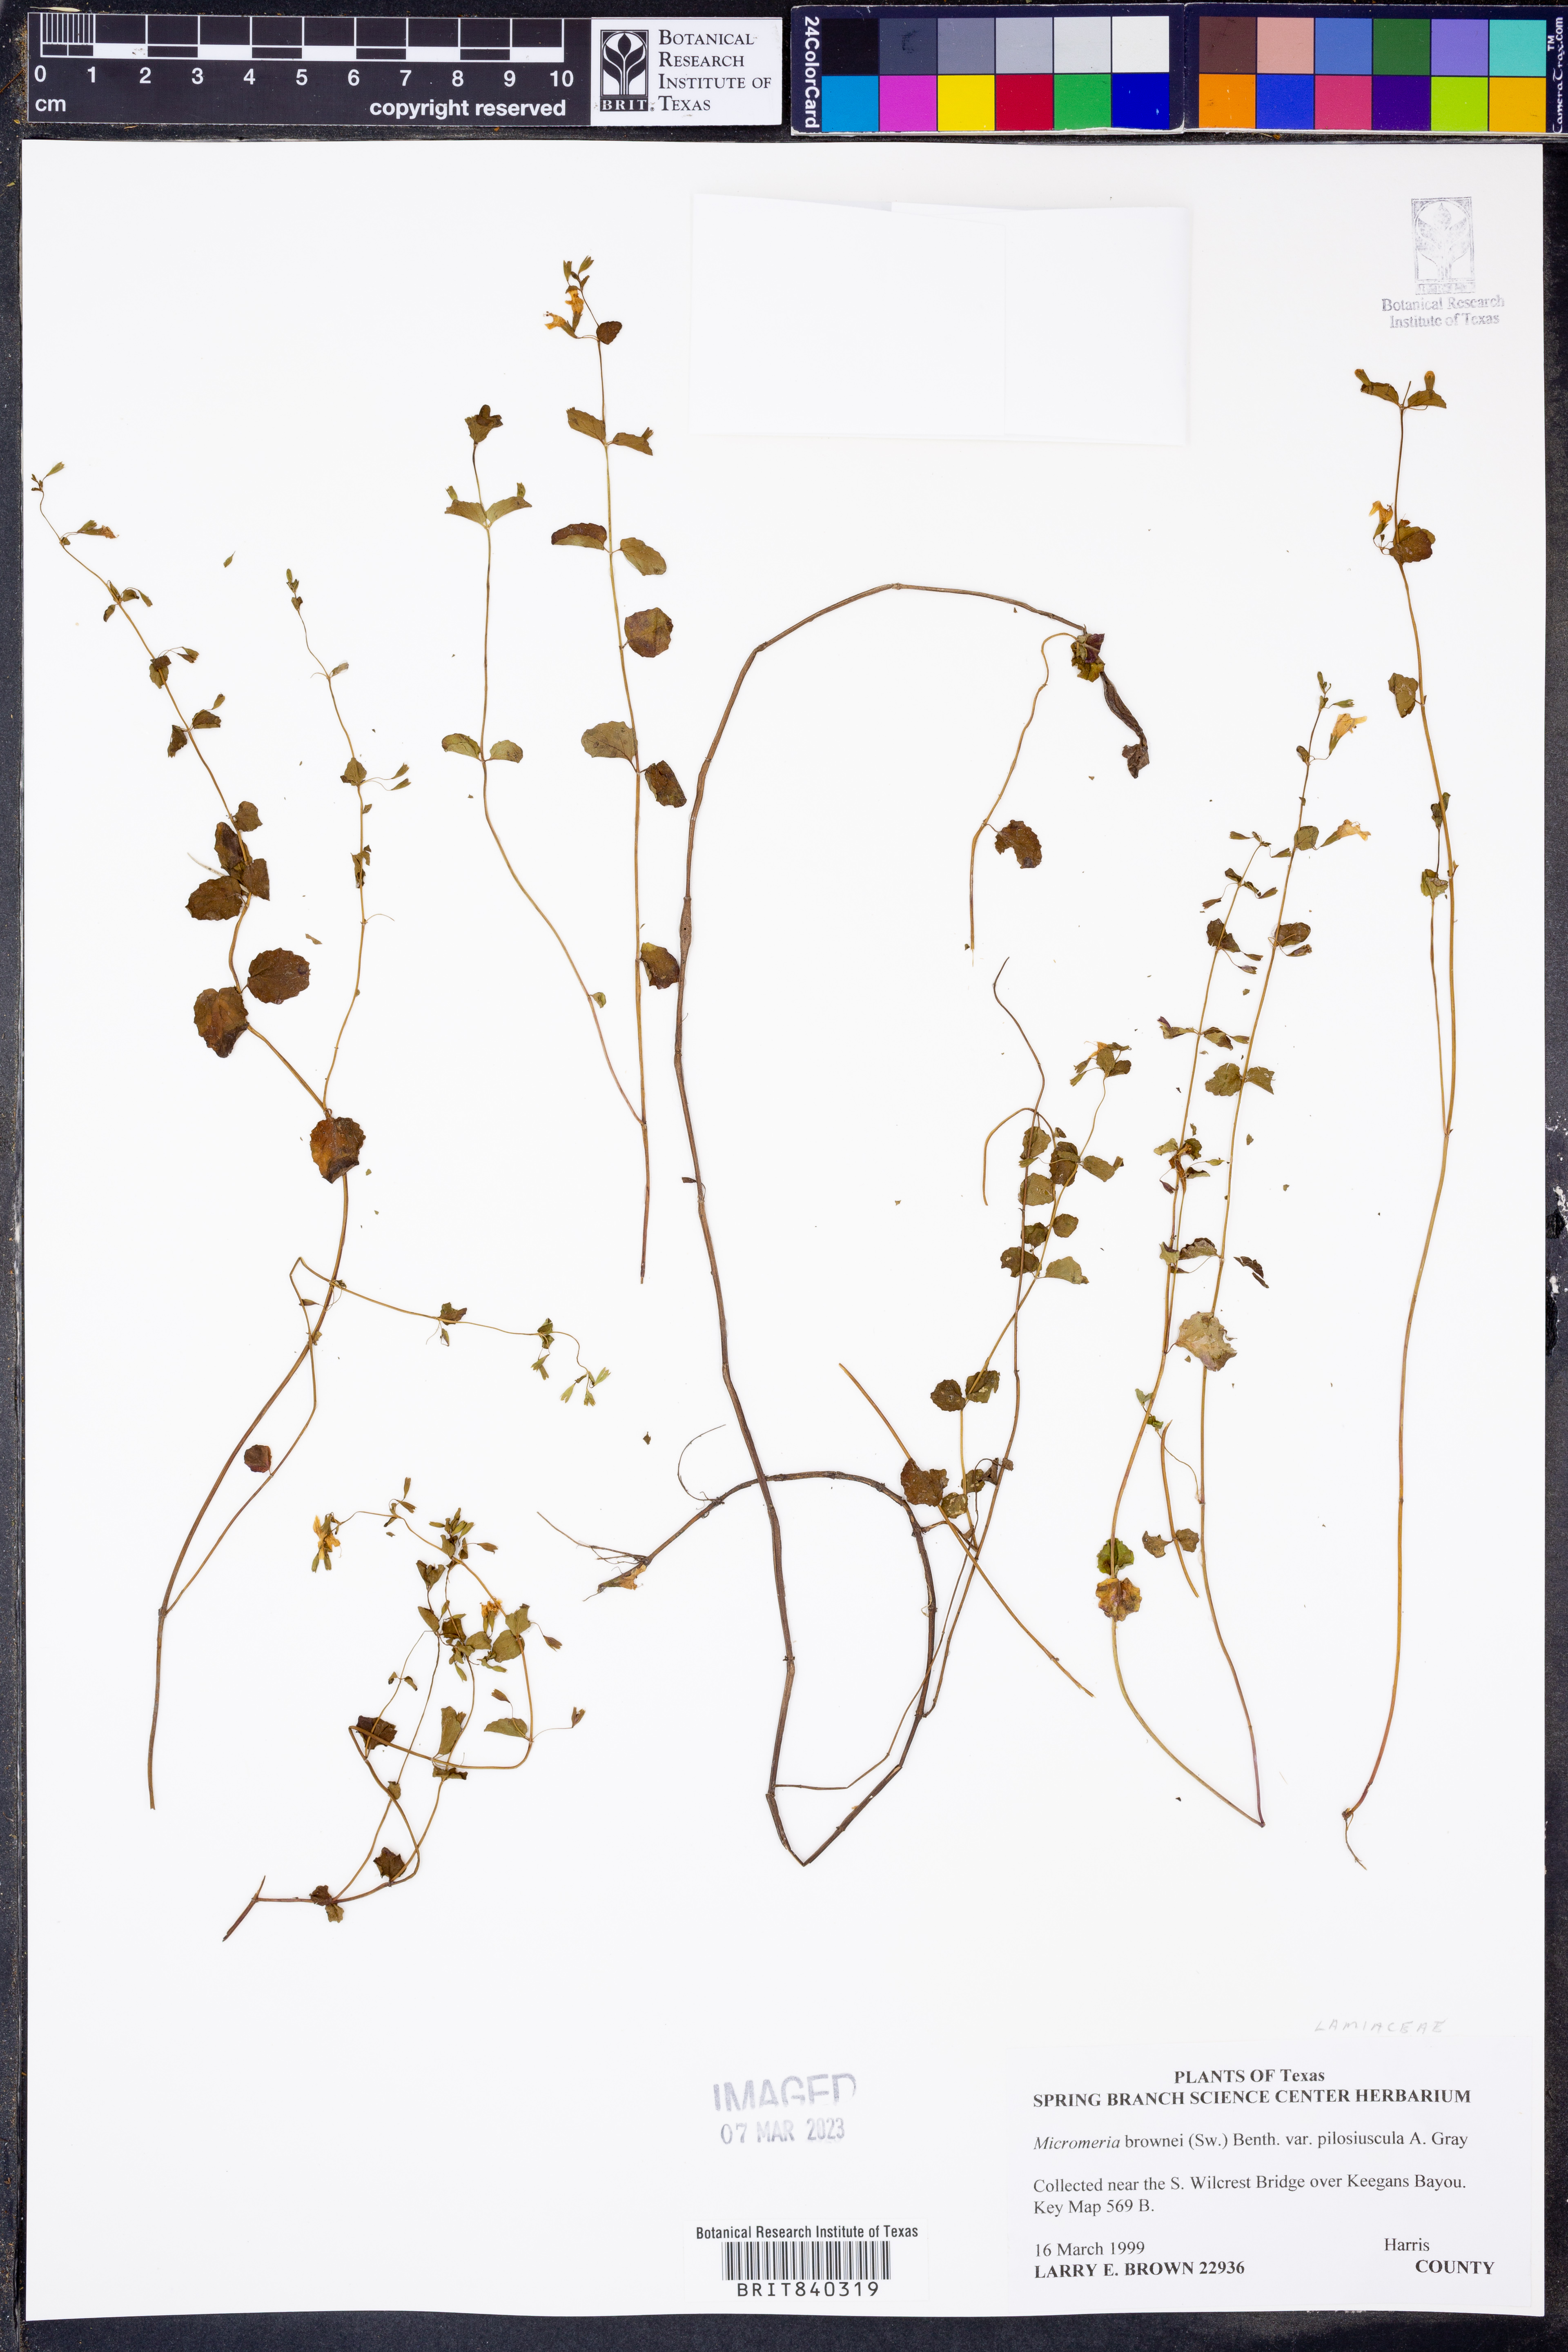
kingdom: Plantae
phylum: Tracheophyta
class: Magnoliopsida
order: Lamiales
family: Lamiaceae
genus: Clinopodium
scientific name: Clinopodium brownei
